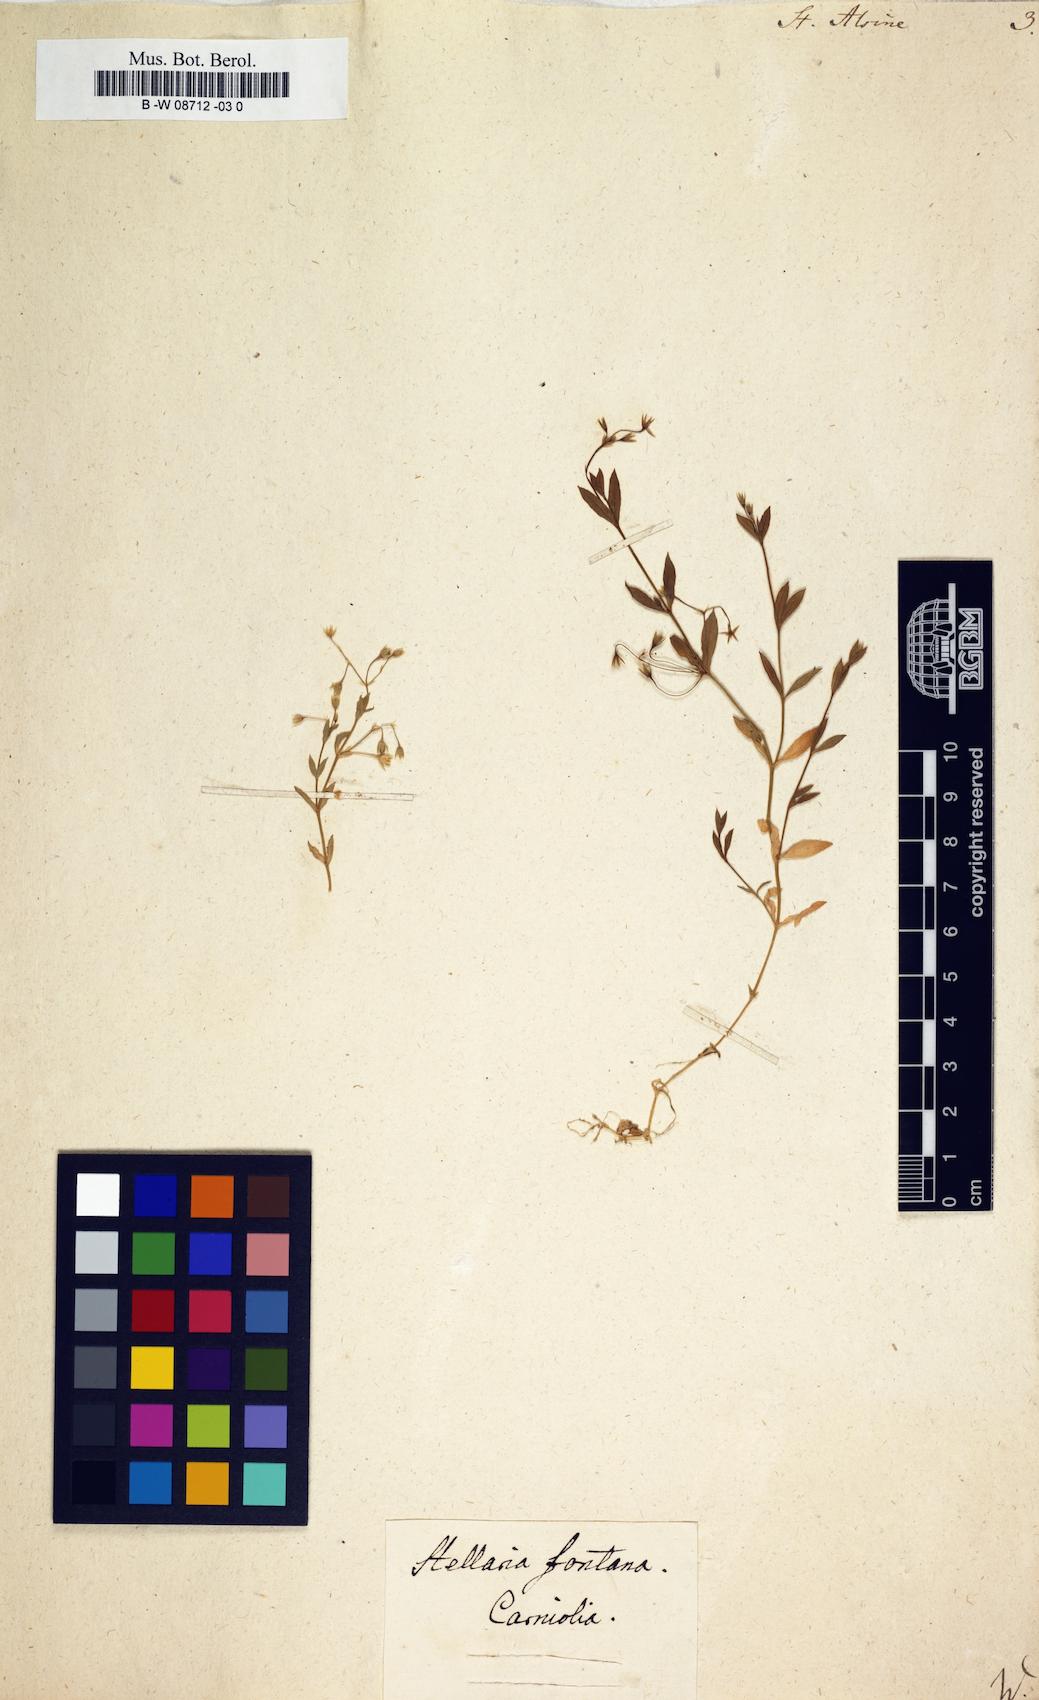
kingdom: Plantae
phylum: Tracheophyta
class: Magnoliopsida
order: Caryophyllales
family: Caryophyllaceae
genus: Stellaria
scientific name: Stellaria alsine
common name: Bog stitchwort
